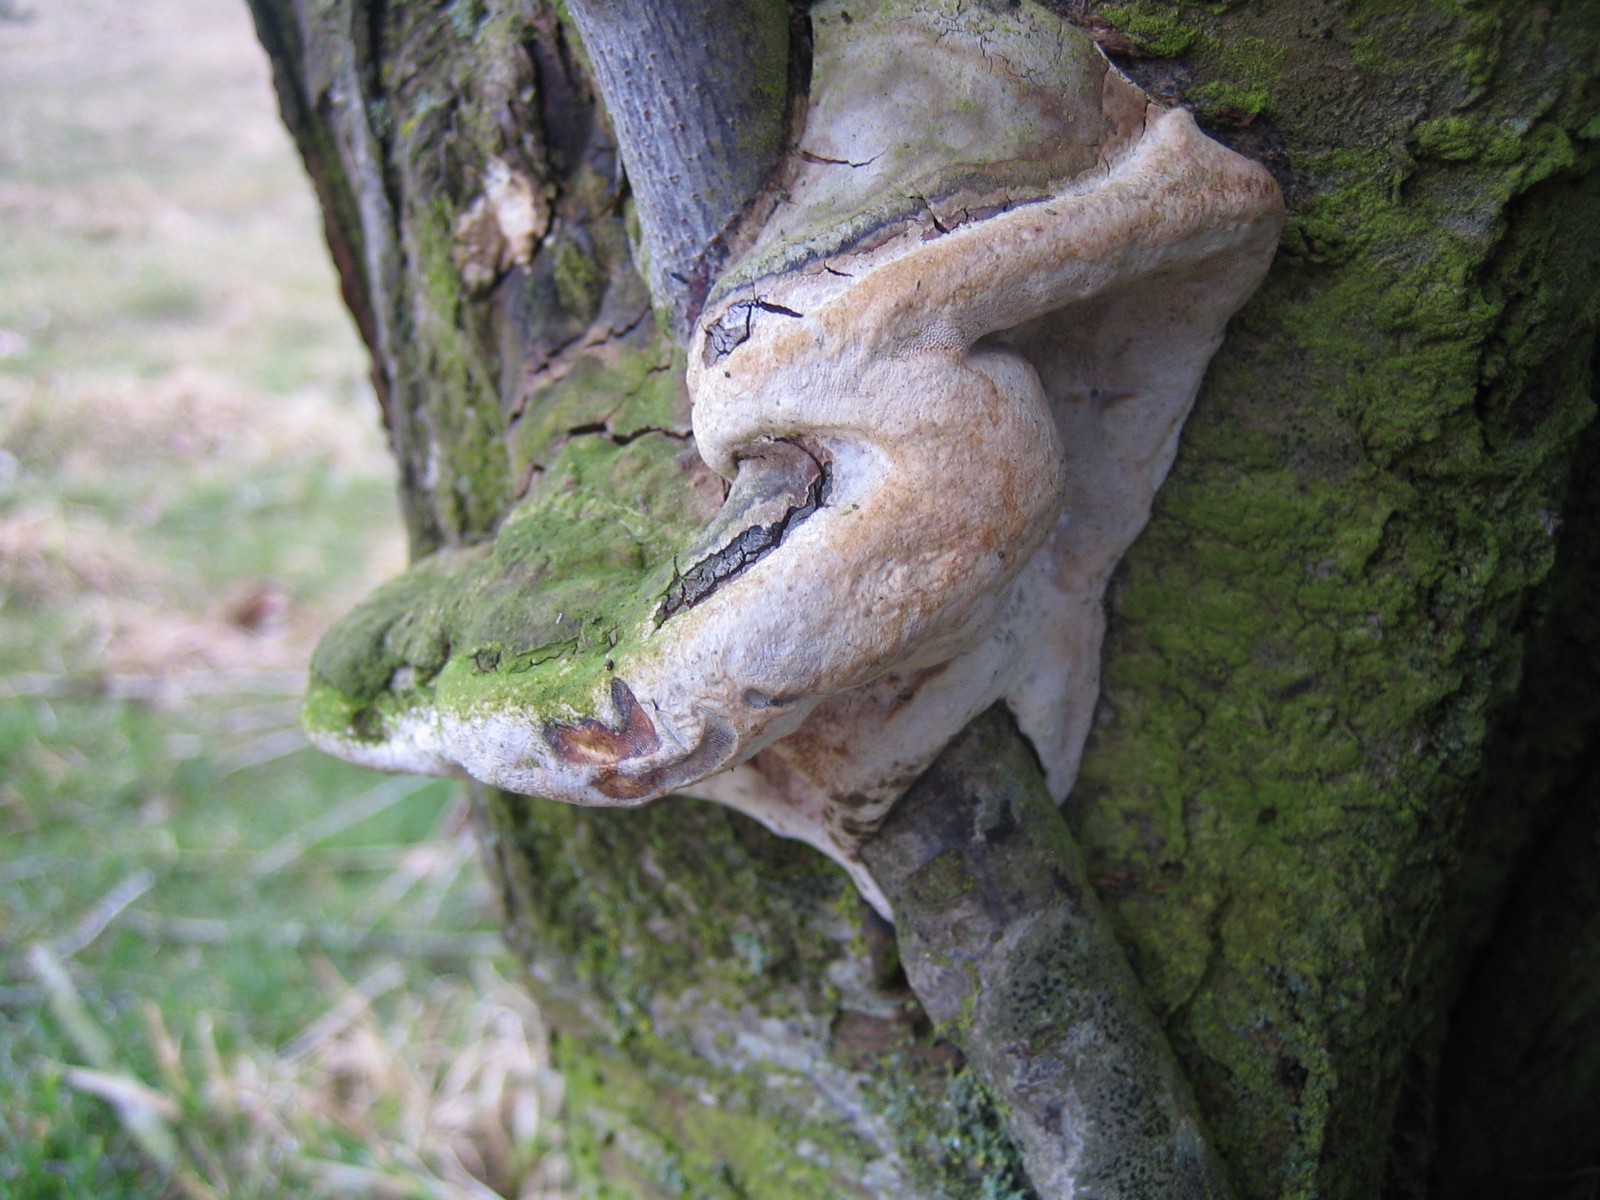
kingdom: Fungi
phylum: Basidiomycota
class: Agaricomycetes
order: Hymenochaetales
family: Hymenochaetaceae
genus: Phellinus
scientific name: Phellinus pomaceus
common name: blomme-ildporesvamp
